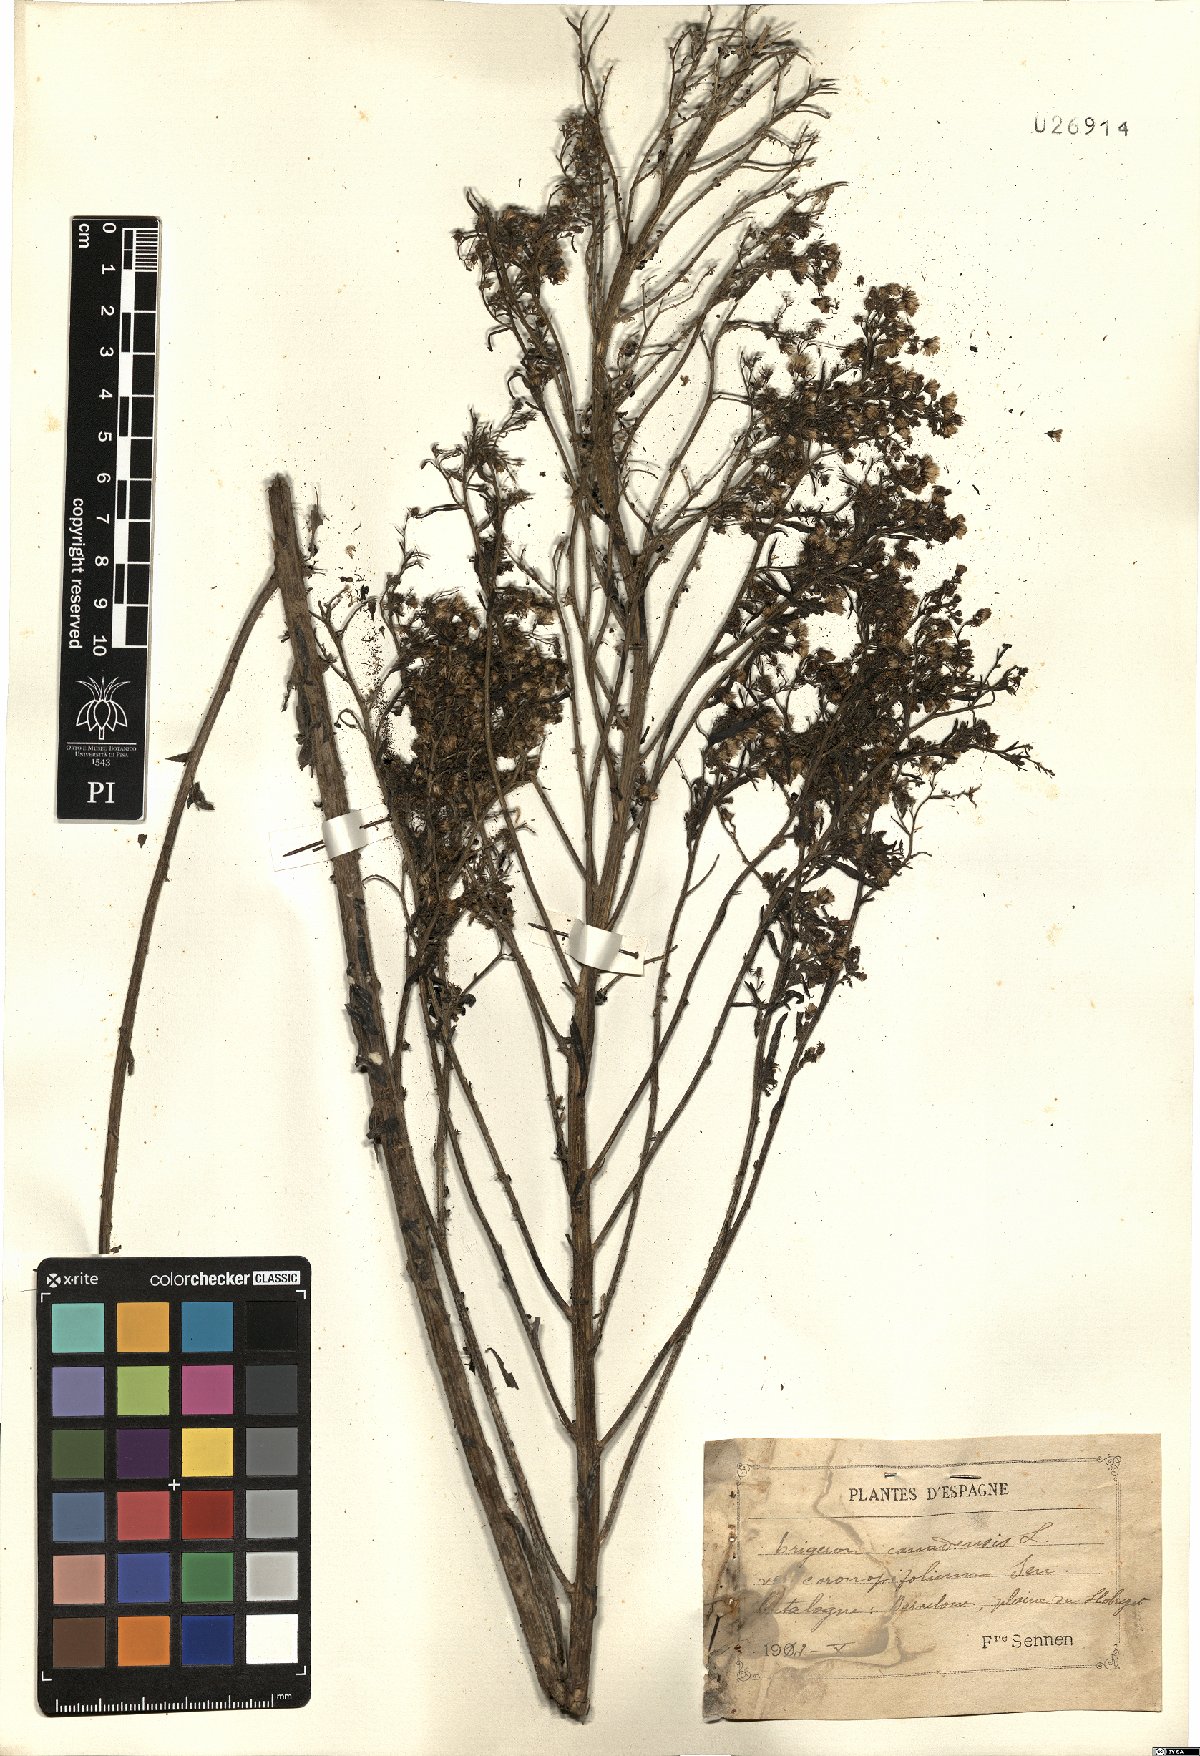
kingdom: Plantae
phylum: Tracheophyta
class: Magnoliopsida
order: Asterales
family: Asteraceae
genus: Erigeron
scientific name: Erigeron canadensis
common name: Canadian fleabane
